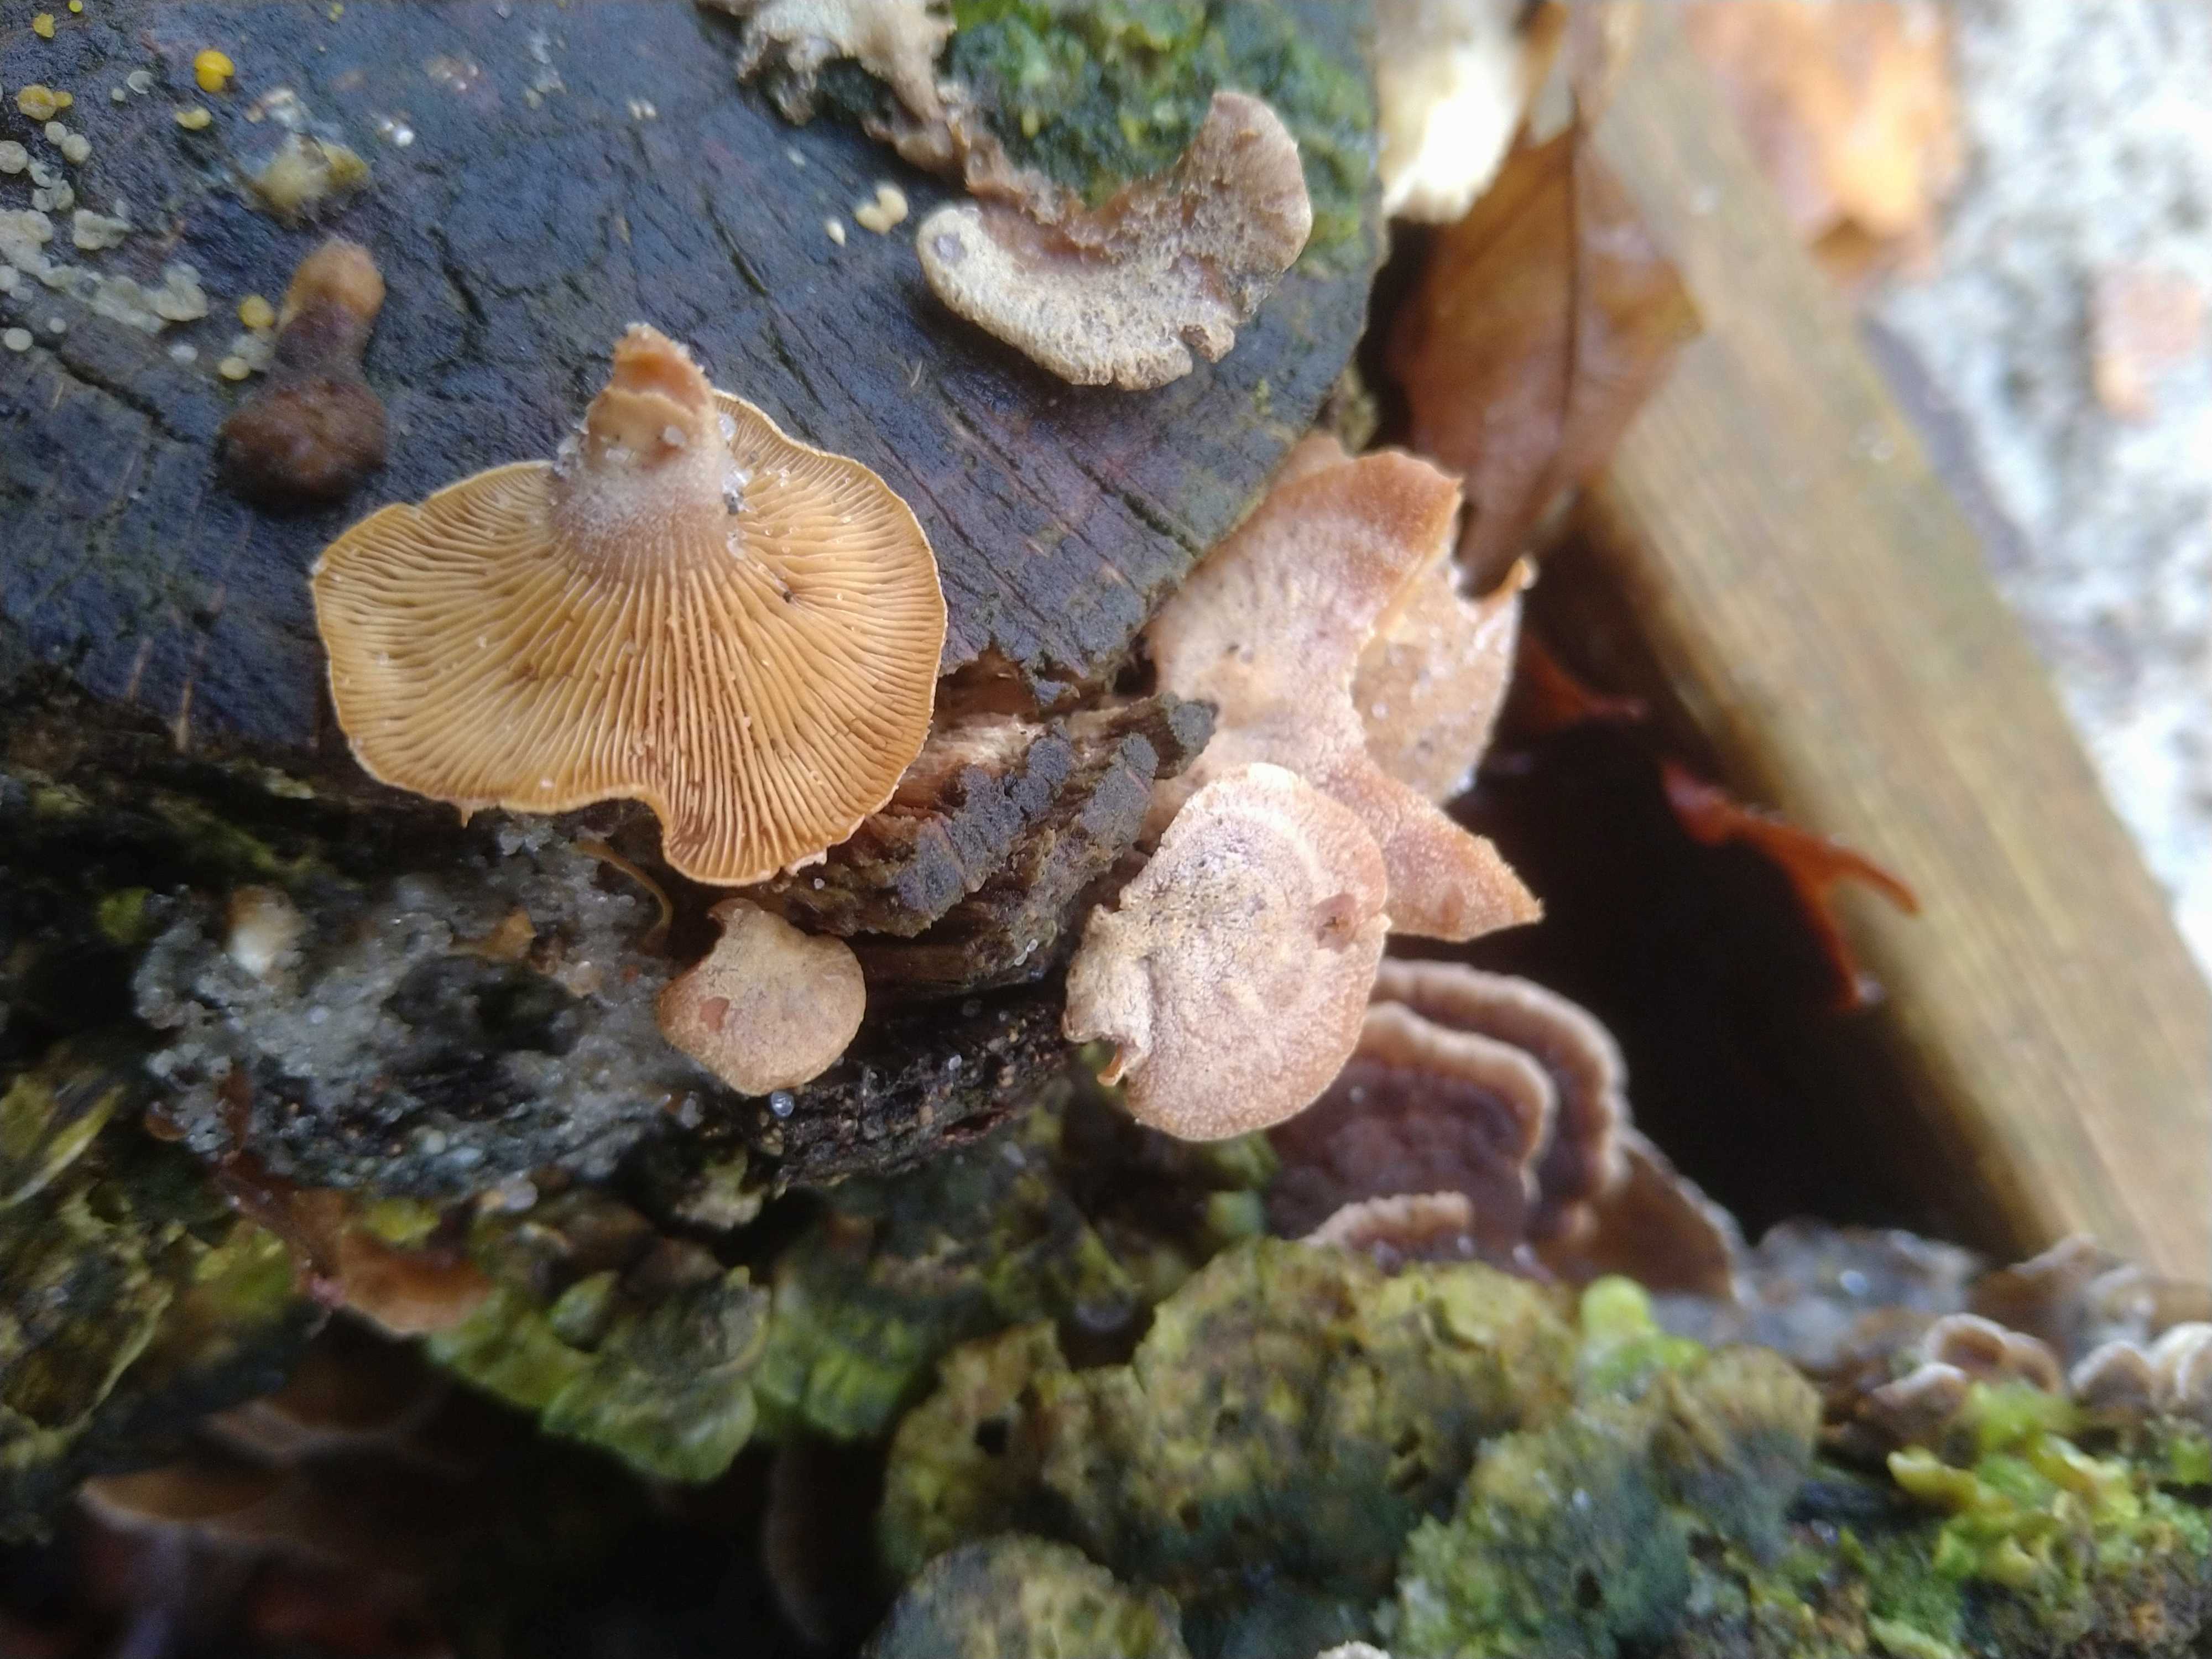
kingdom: Fungi
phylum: Basidiomycota
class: Agaricomycetes
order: Agaricales
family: Mycenaceae
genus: Panellus
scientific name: Panellus stipticus
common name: kliddet epaulethat
